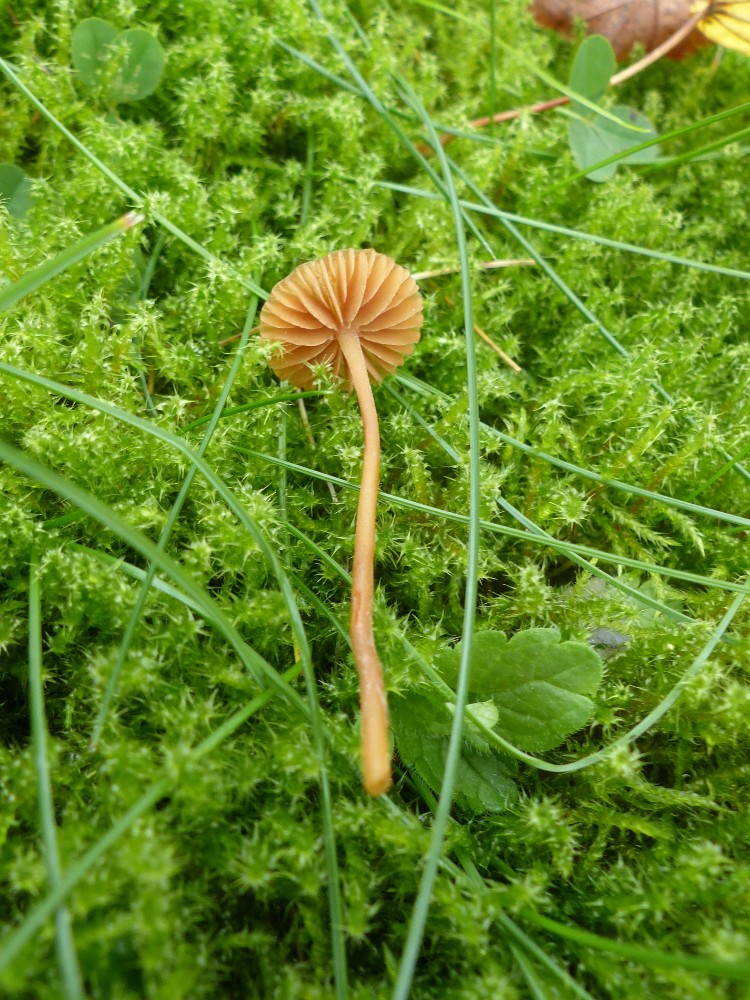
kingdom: Fungi
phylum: Basidiomycota
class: Agaricomycetes
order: Agaricales
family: Hymenogastraceae
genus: Galerina
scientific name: Galerina
